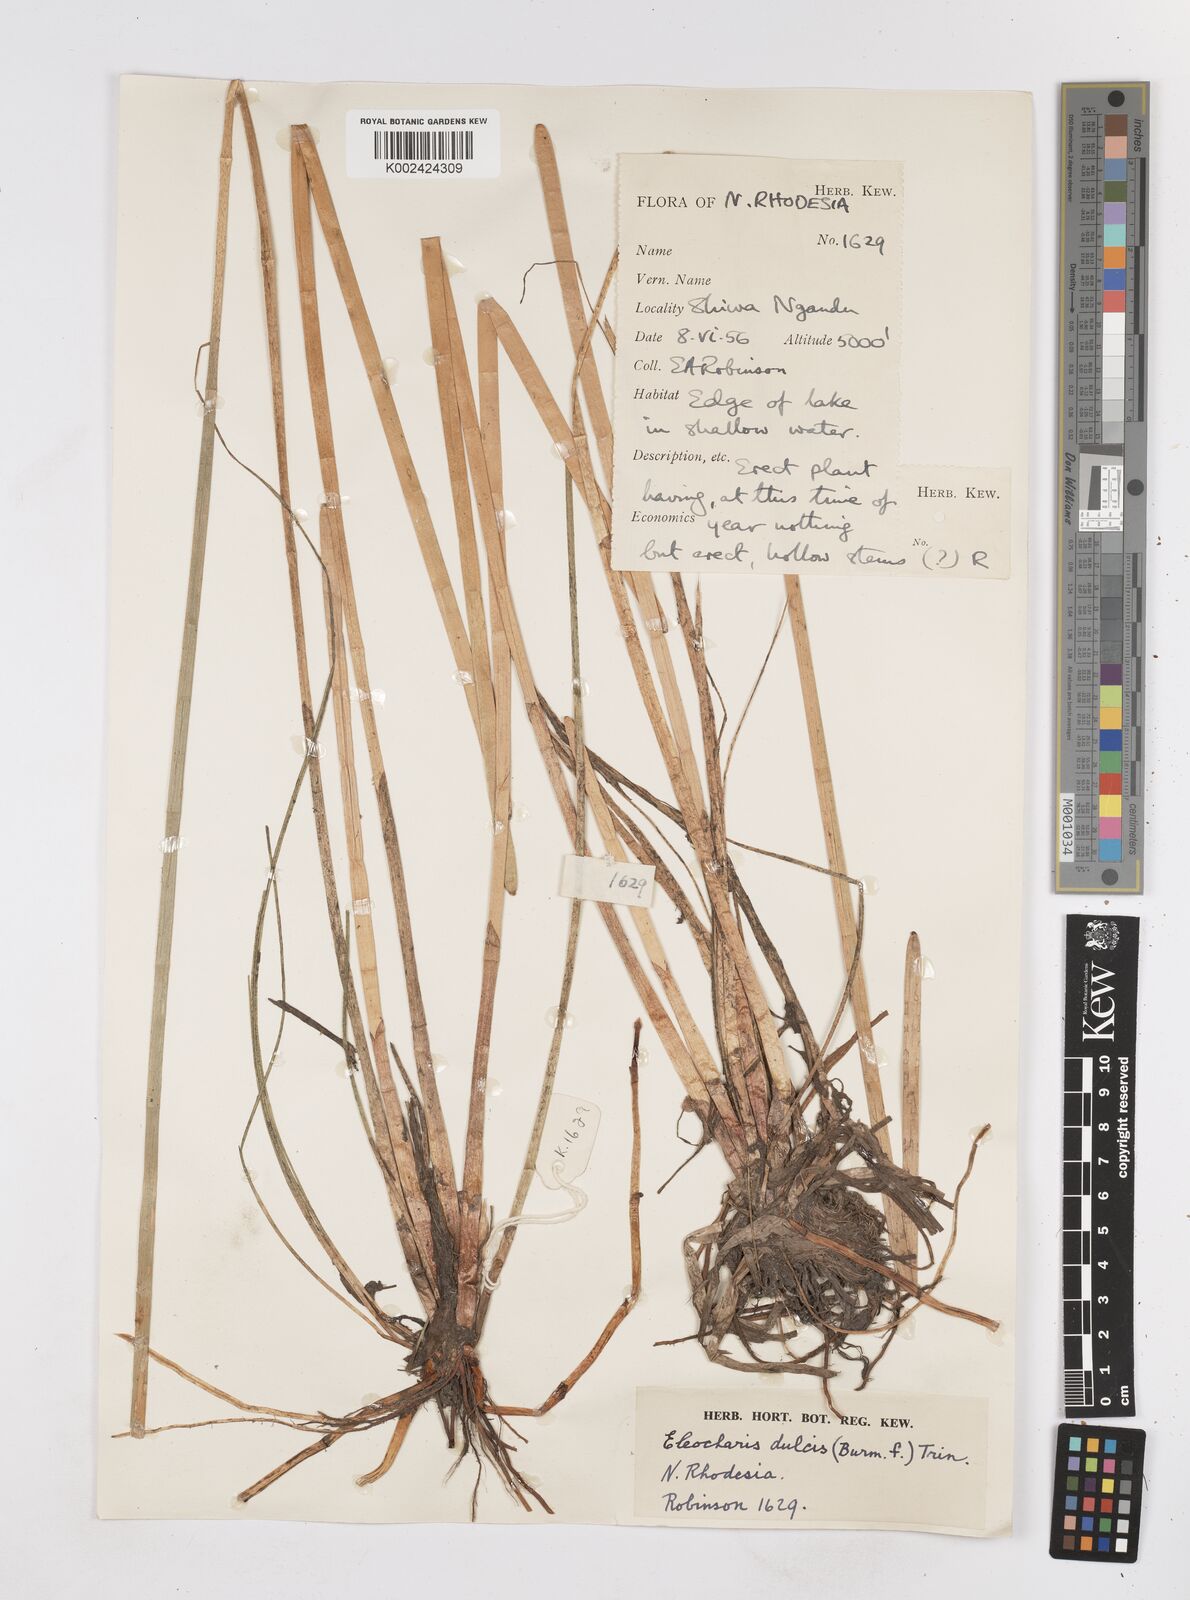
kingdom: Plantae
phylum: Tracheophyta
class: Liliopsida
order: Poales
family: Cyperaceae
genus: Eleocharis
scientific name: Eleocharis dulcis
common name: Chinese water chestnut
